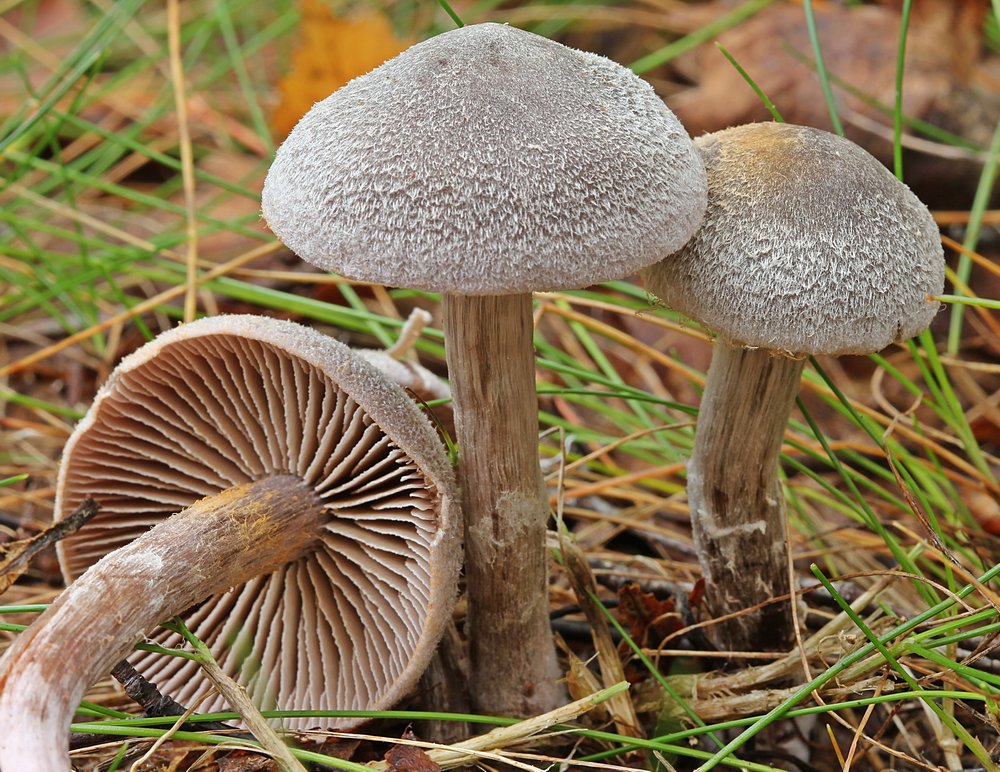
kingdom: Fungi
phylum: Basidiomycota
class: Agaricomycetes
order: Agaricales
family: Cortinariaceae
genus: Cortinarius
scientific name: Cortinarius hemitrichus
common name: hvidfnugget slørhat
